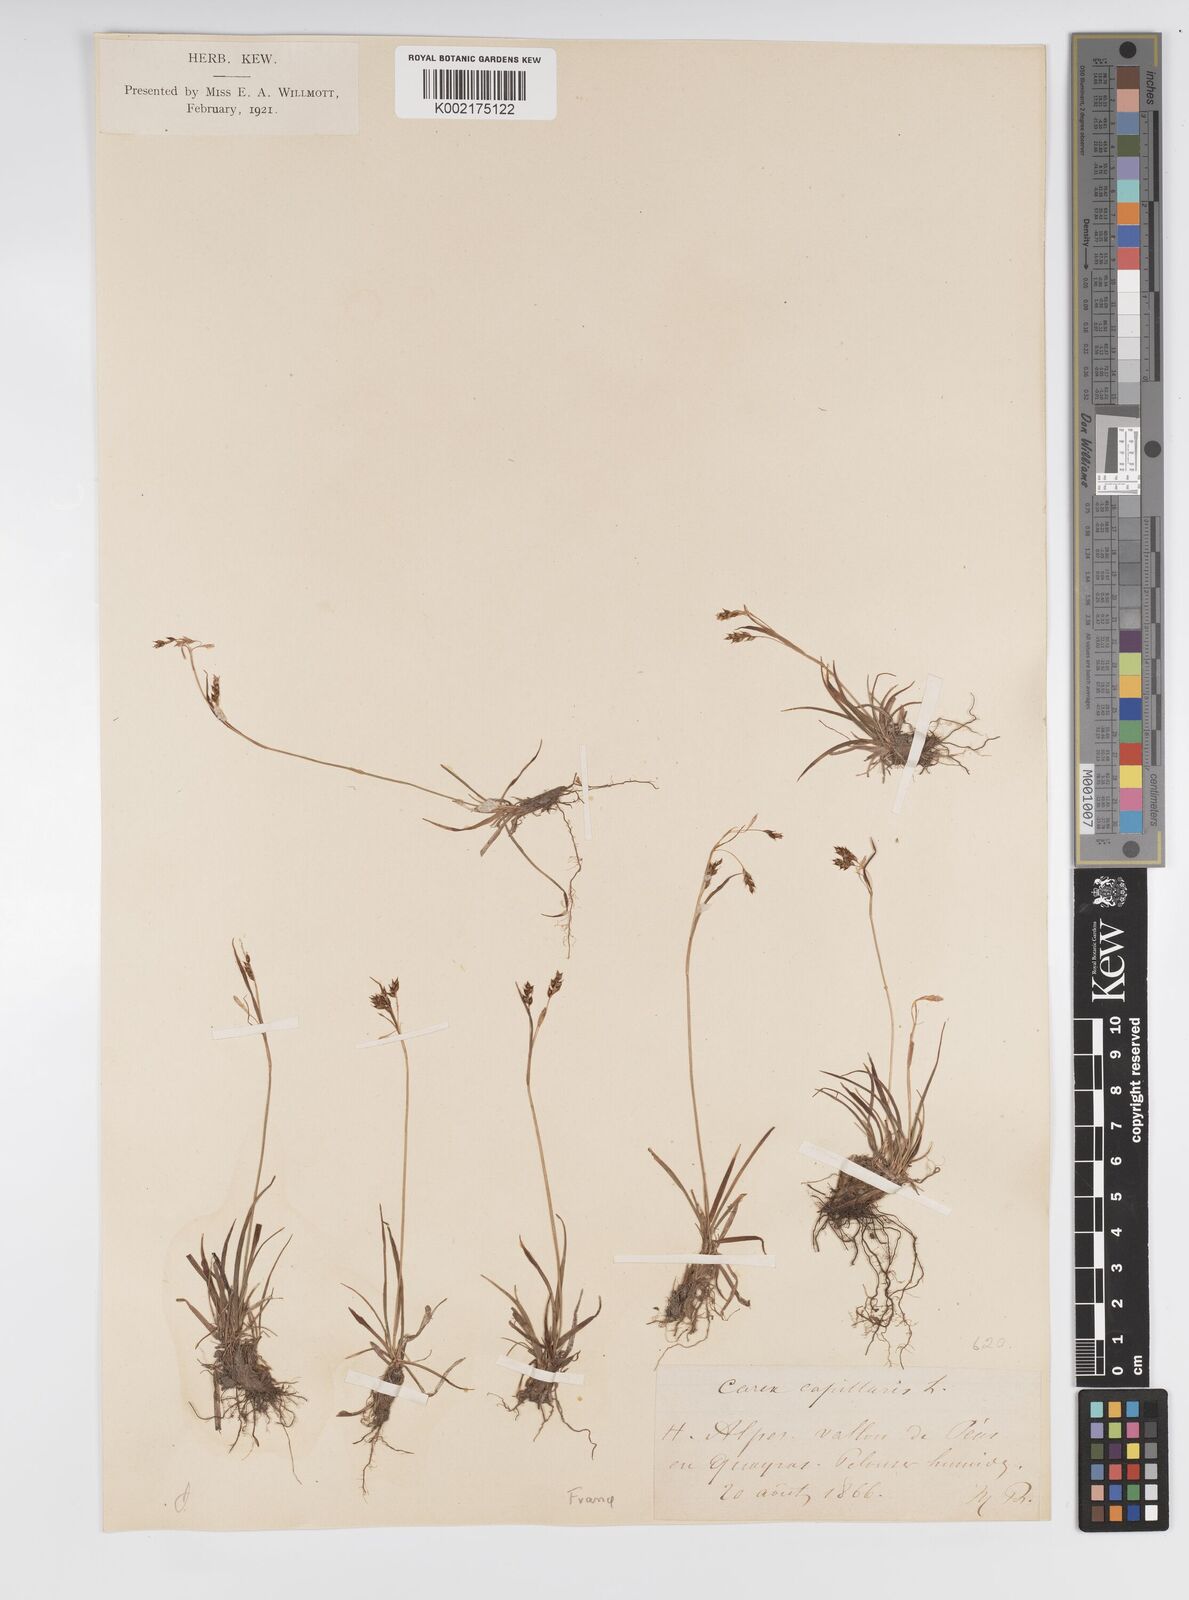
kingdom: Plantae
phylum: Tracheophyta
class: Liliopsida
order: Poales
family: Cyperaceae
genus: Carex
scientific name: Carex capillaris
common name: Hair sedge
